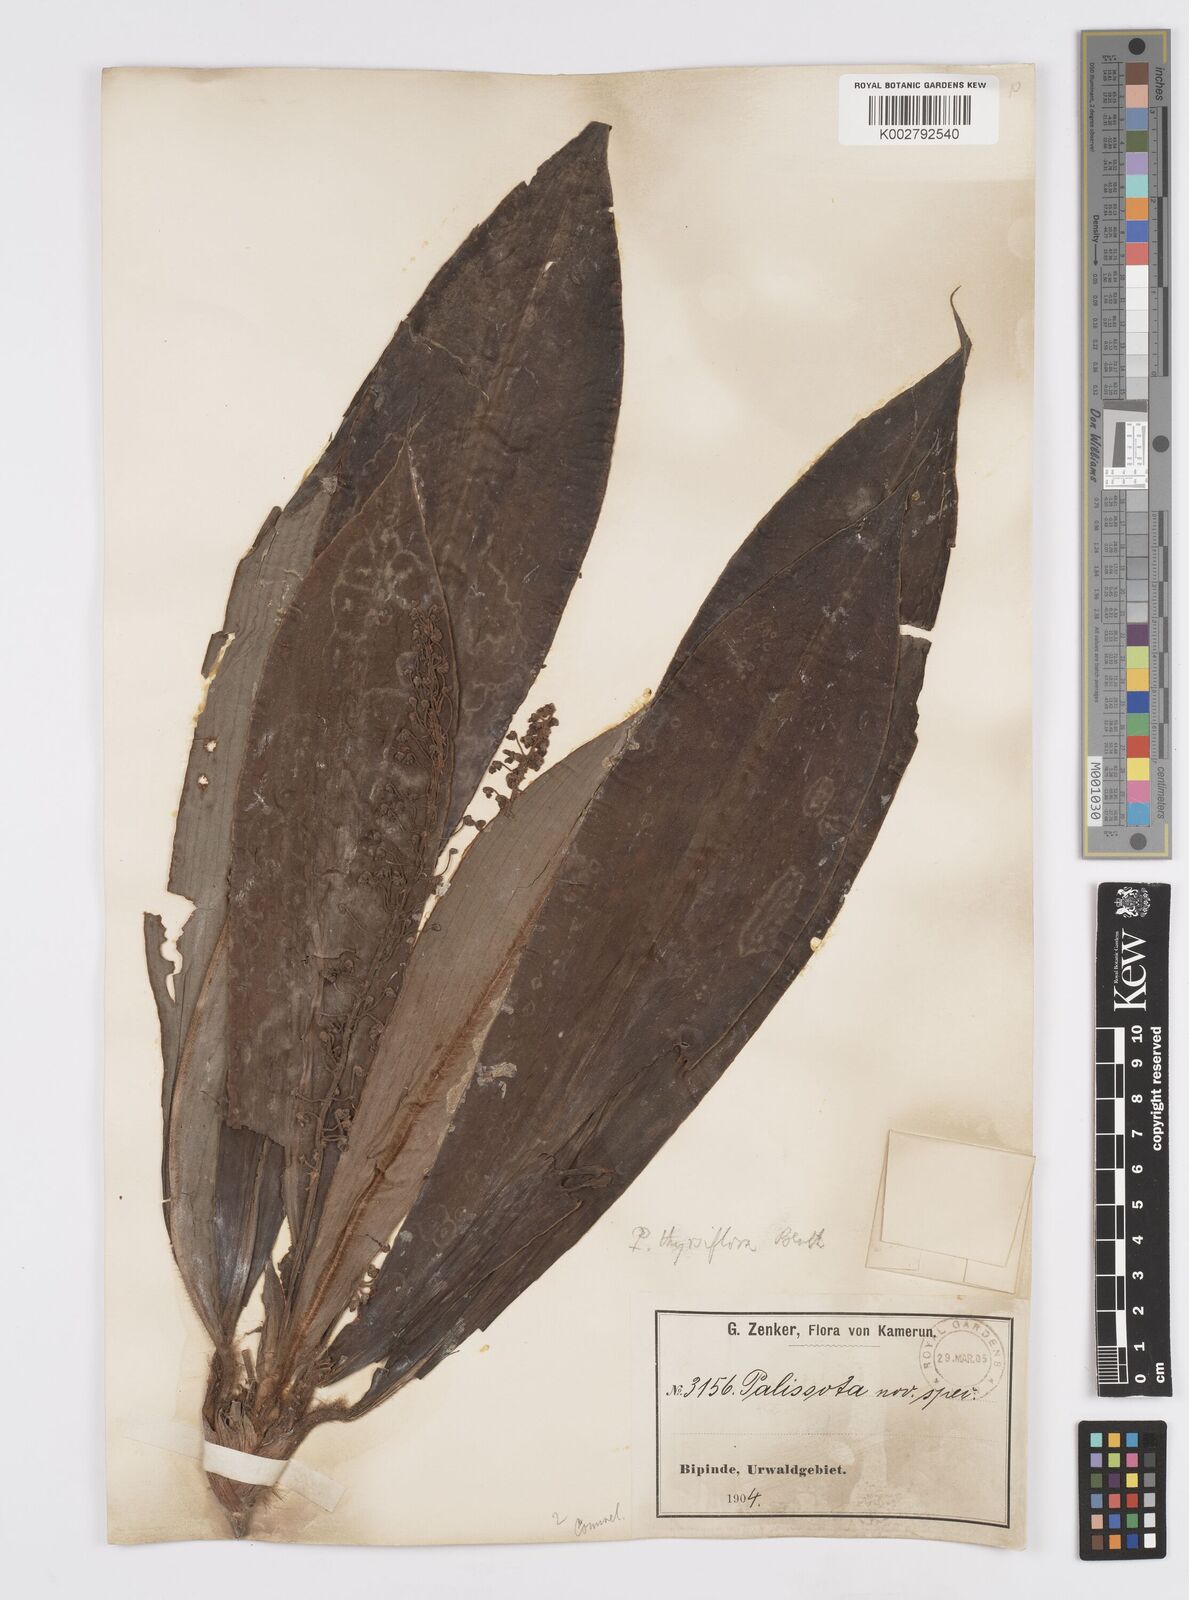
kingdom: Plantae
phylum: Tracheophyta
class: Liliopsida
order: Commelinales
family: Commelinaceae
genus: Palisota
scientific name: Palisota hirsuta
